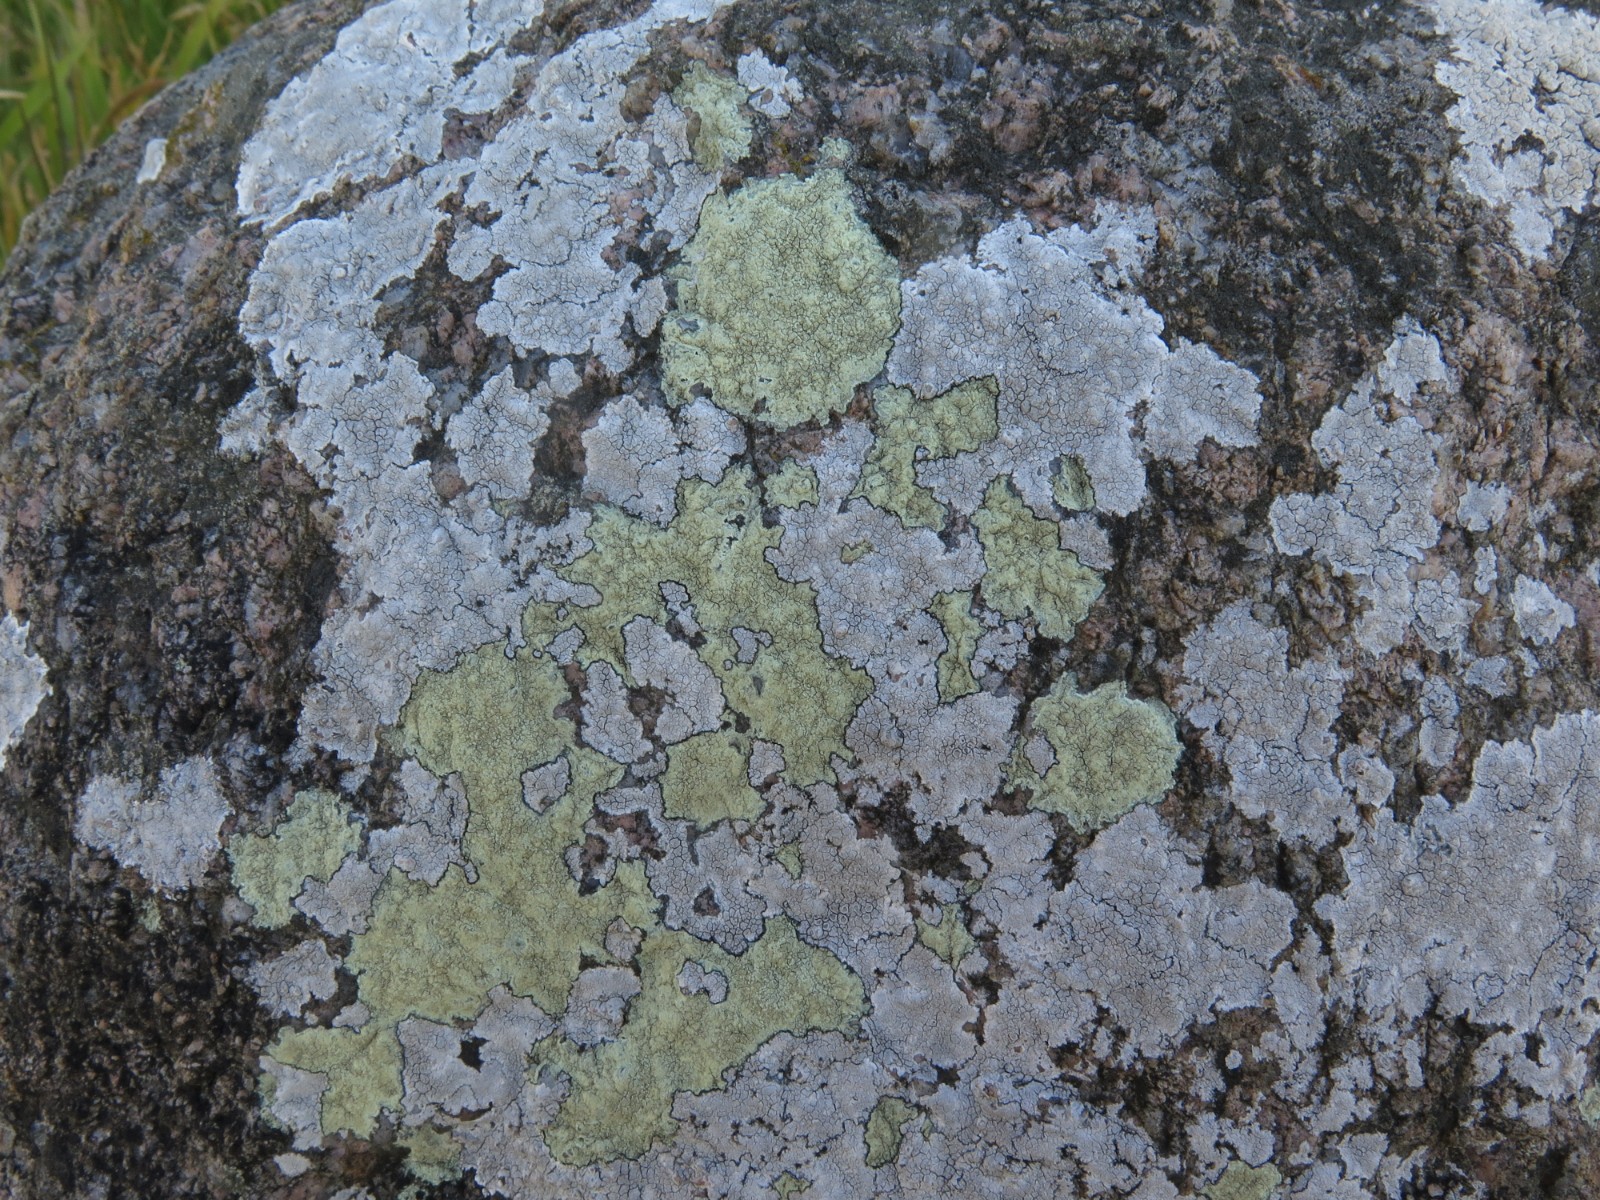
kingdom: Fungi
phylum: Ascomycota
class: Lecanoromycetes
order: Lecanorales
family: Lecanoraceae
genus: Glaucomaria
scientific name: Glaucomaria rupicola
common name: stengærde-kantskivelav
